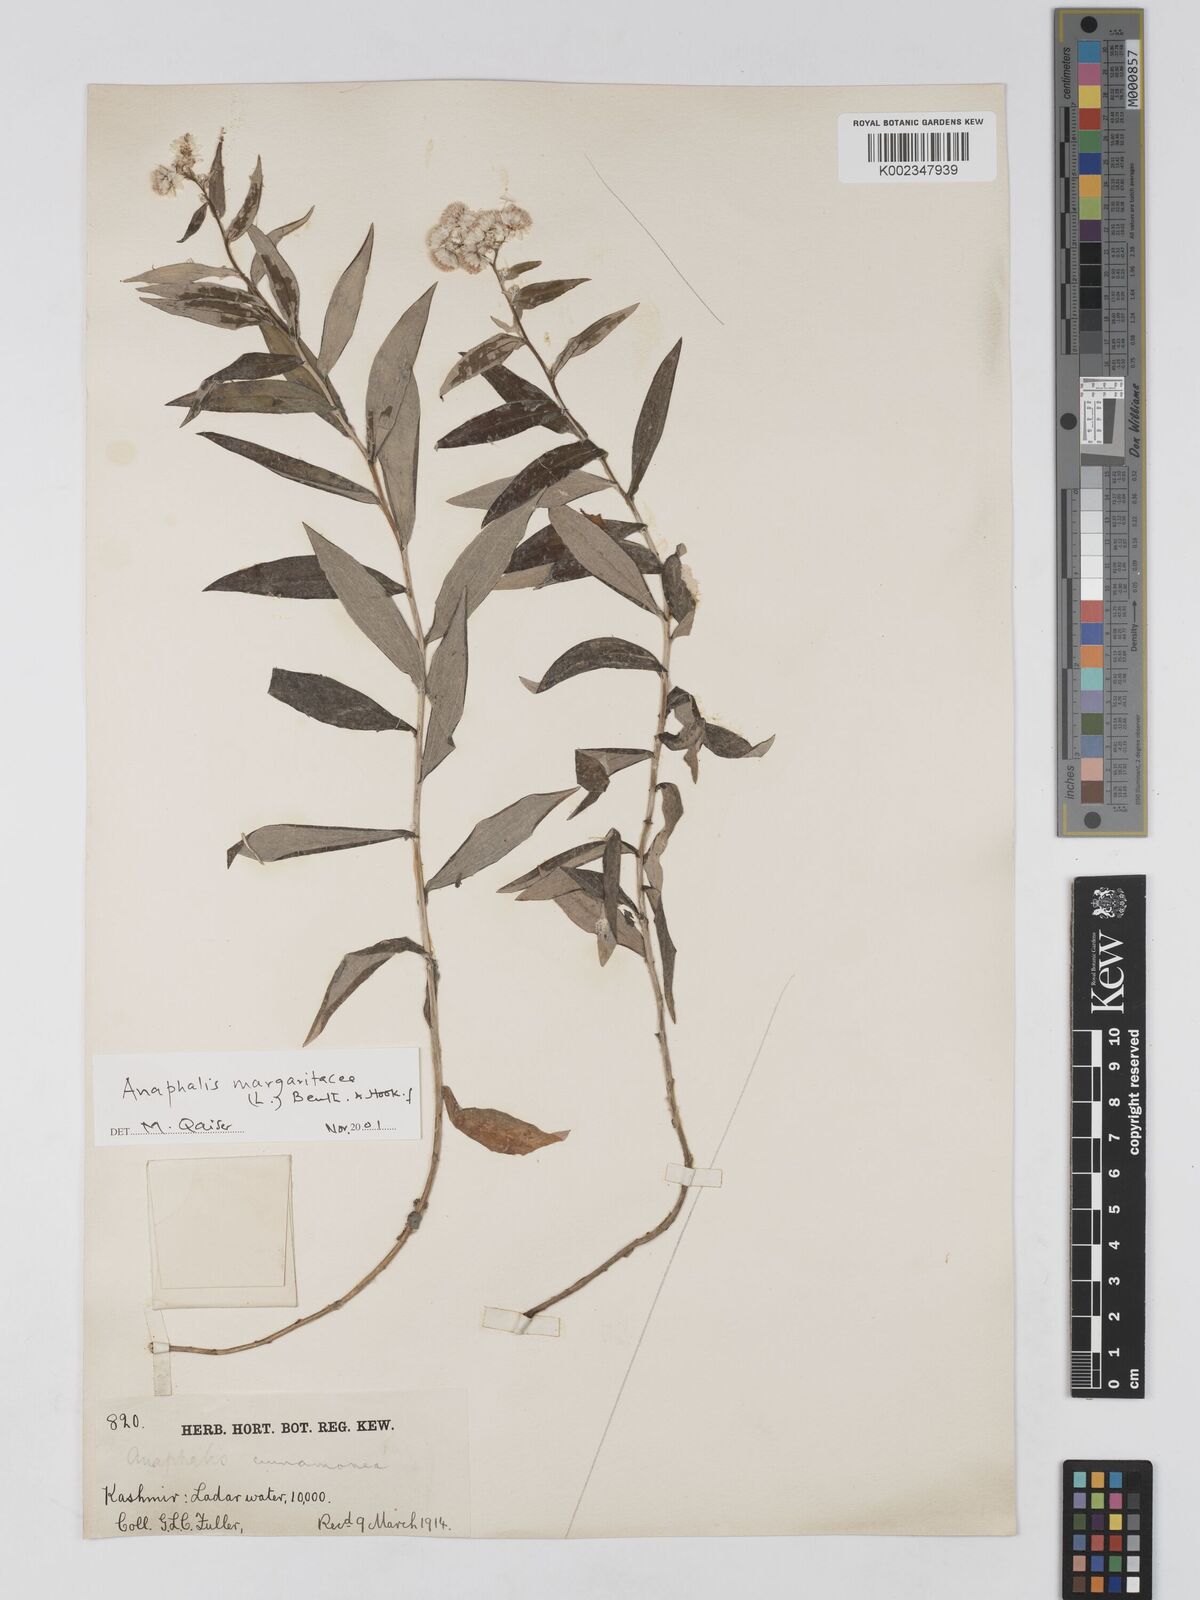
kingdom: Plantae
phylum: Tracheophyta
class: Magnoliopsida
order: Asterales
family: Asteraceae
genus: Anaphalis
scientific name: Anaphalis leptophylla
